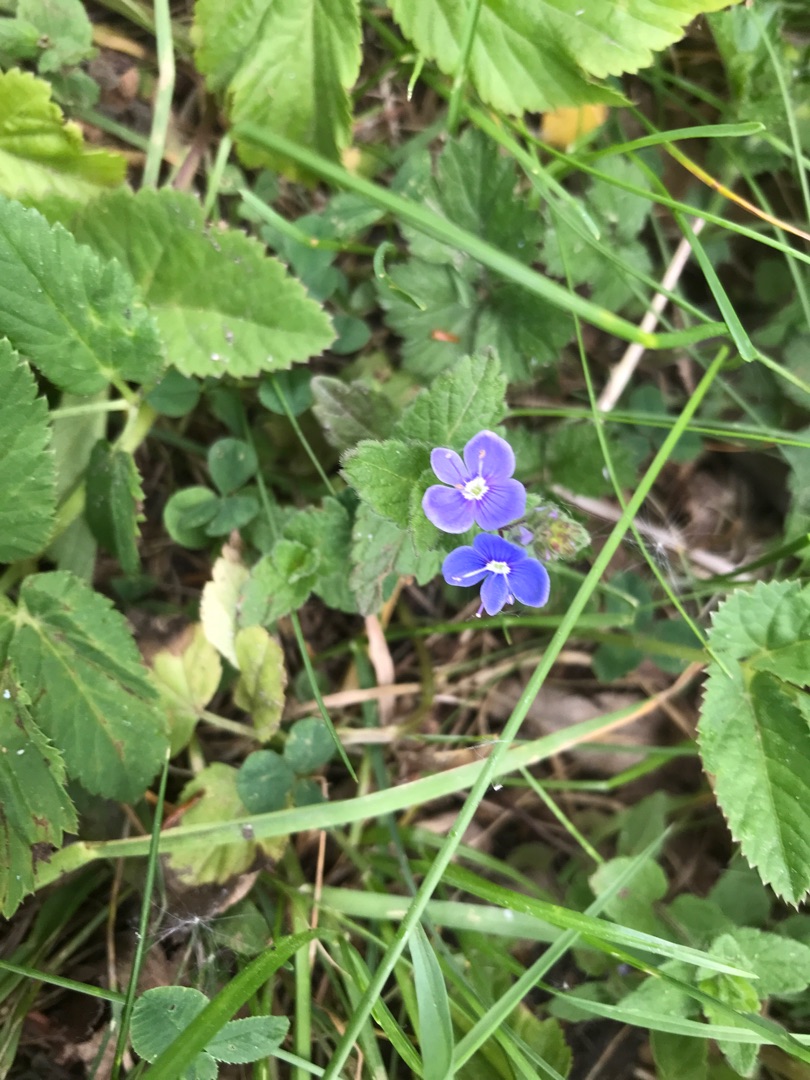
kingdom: Plantae
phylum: Tracheophyta
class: Magnoliopsida
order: Lamiales
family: Plantaginaceae
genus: Veronica
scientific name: Veronica chamaedrys
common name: Tveskægget ærenpris
